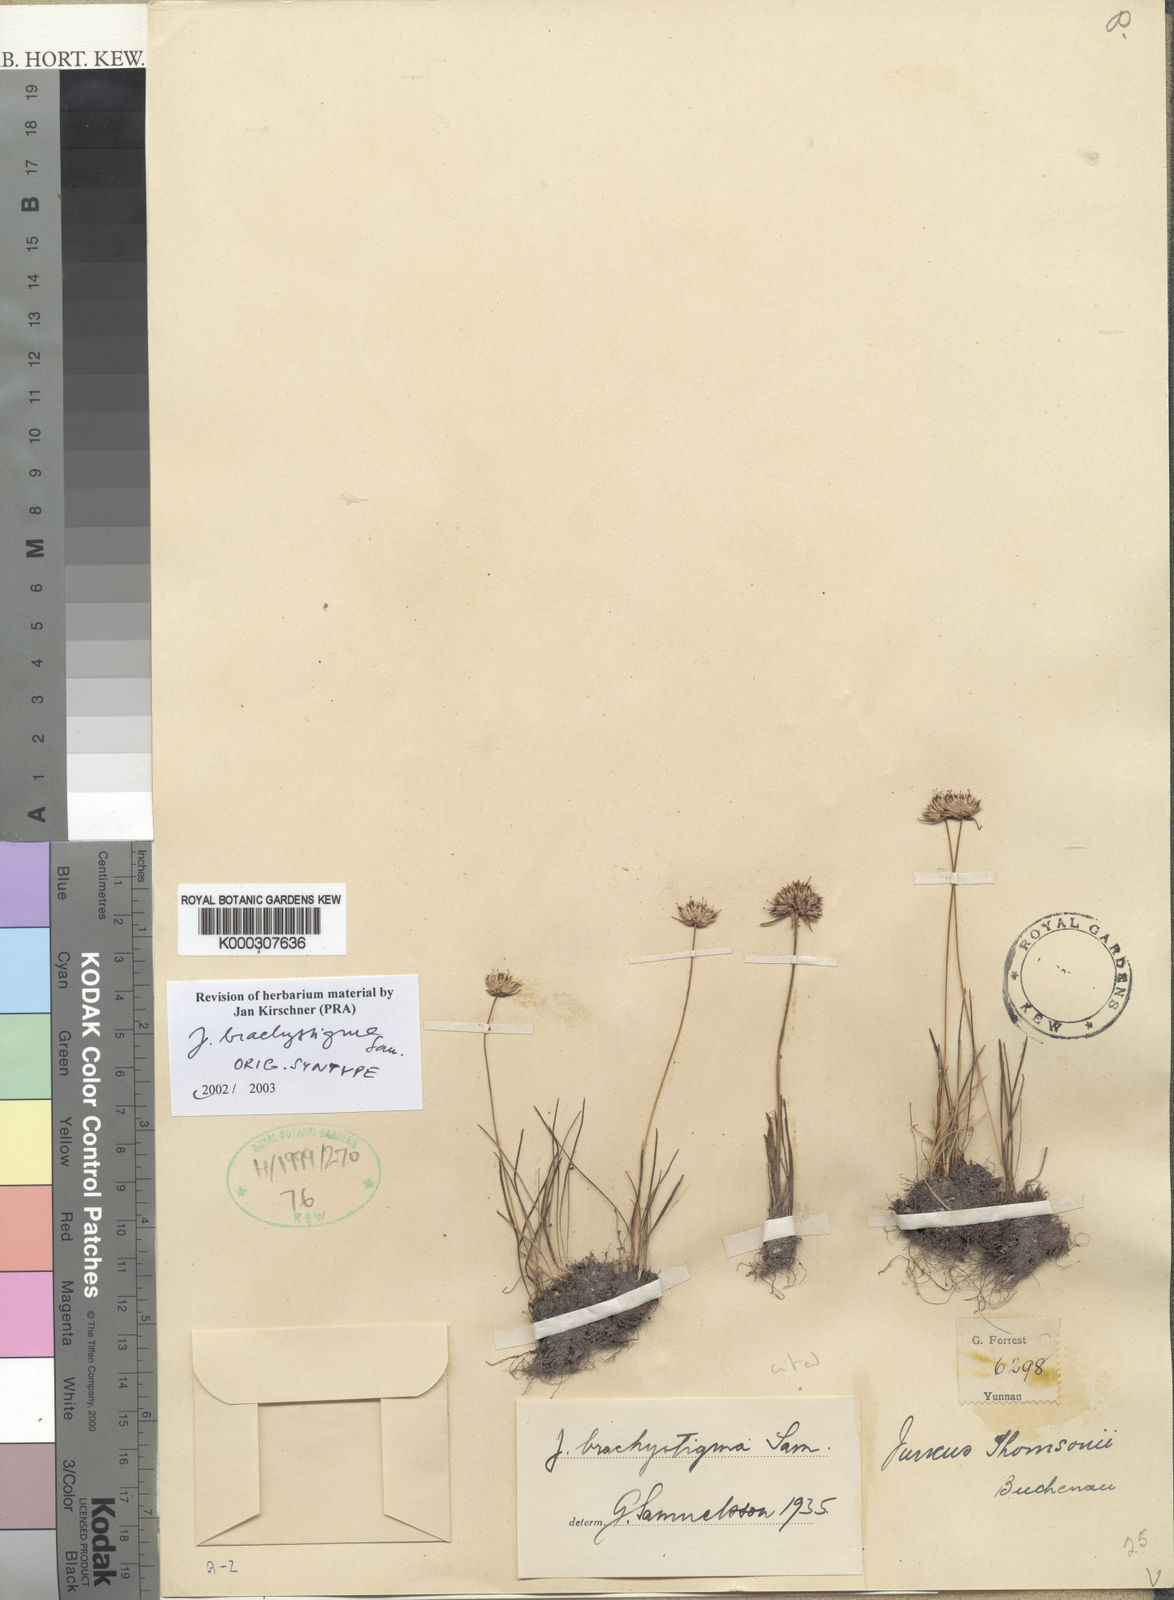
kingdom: Plantae
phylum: Tracheophyta
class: Liliopsida
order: Poales
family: Juncaceae
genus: Juncus
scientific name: Juncus brachystigma
